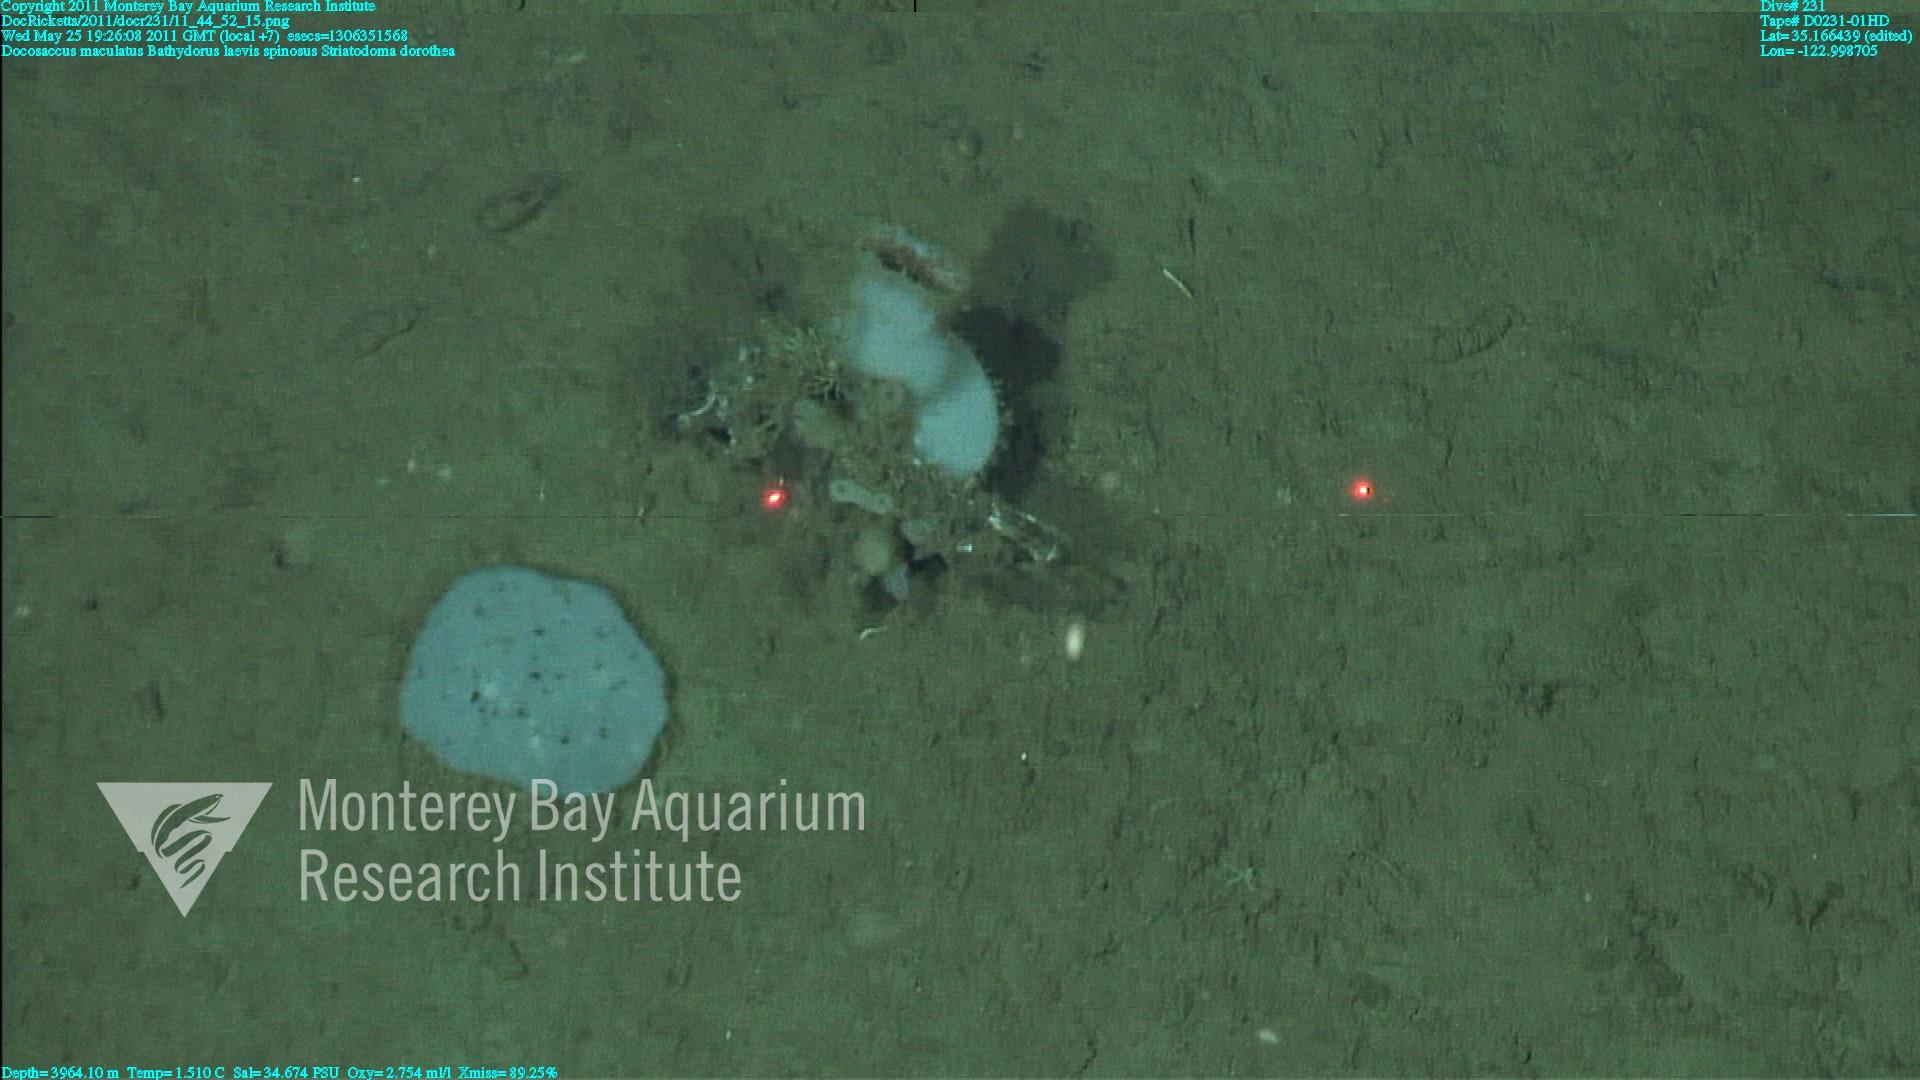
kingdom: Animalia
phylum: Porifera
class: Hexactinellida
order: Lyssacinosida
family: Rossellidae
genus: Bathydorus
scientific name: Bathydorus spinosus
